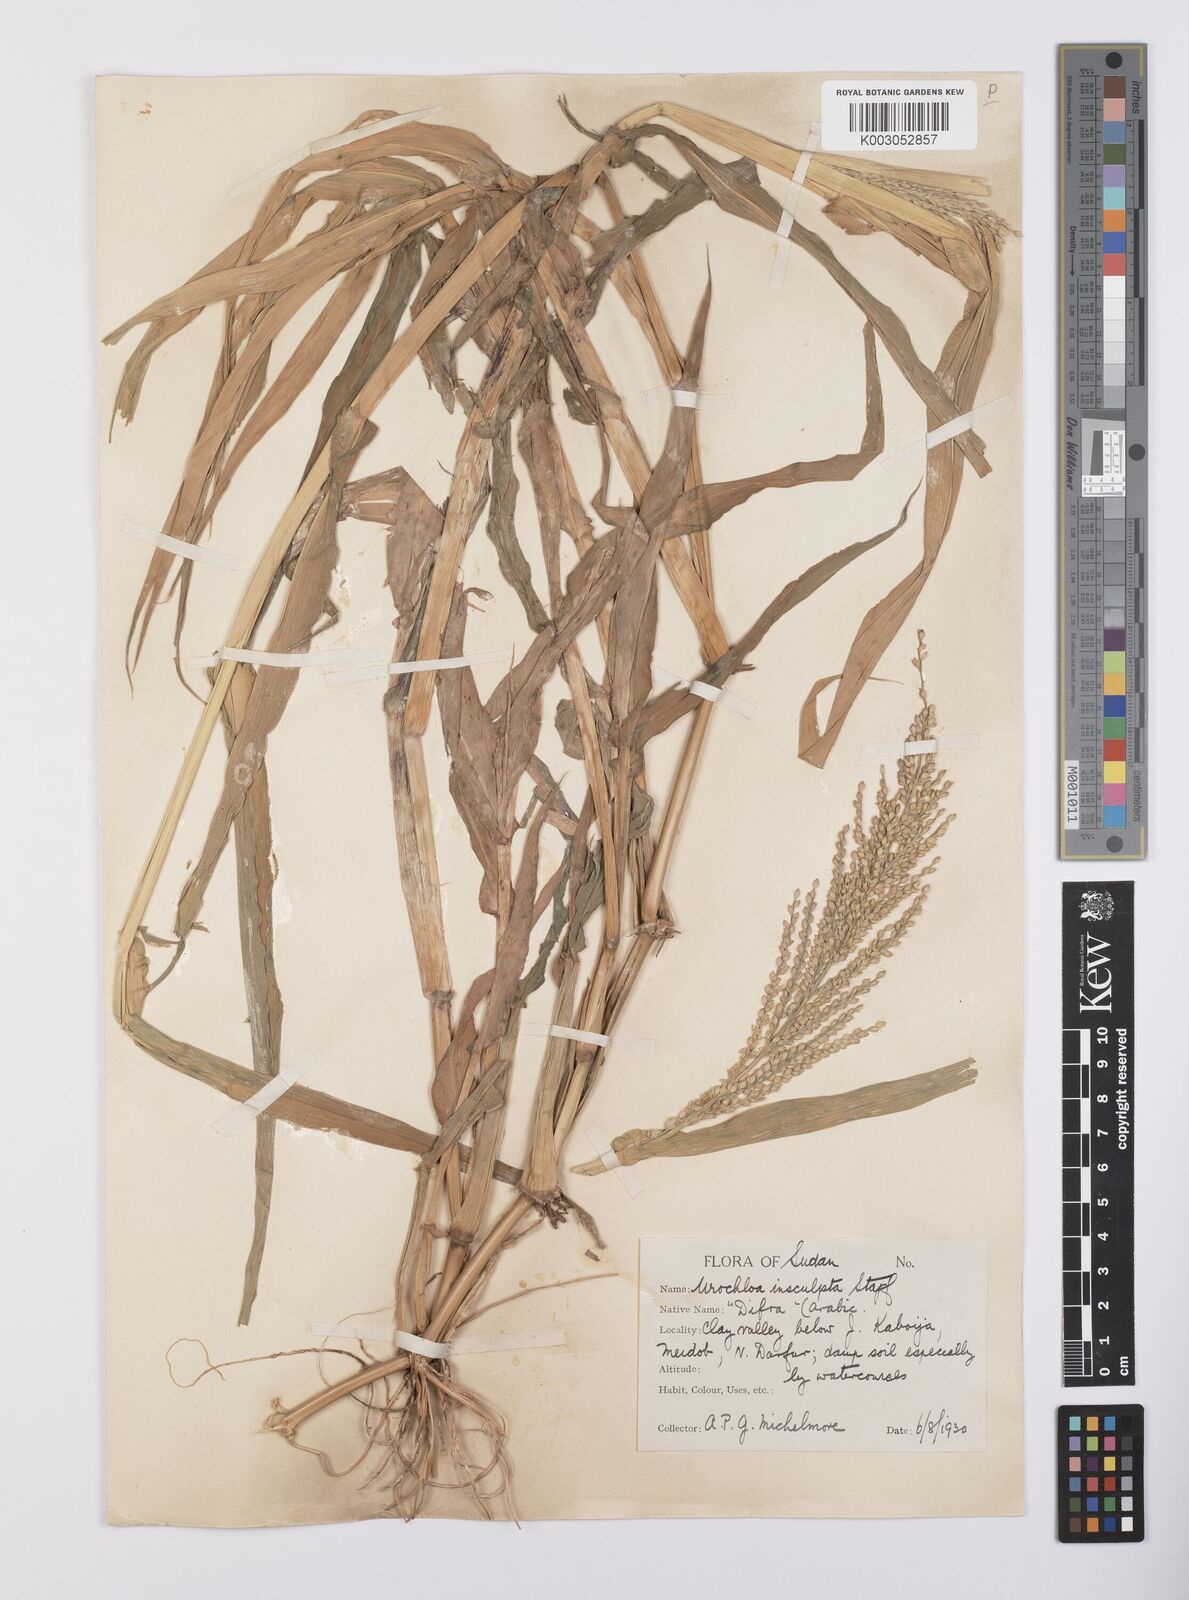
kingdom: Plantae
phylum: Tracheophyta
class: Liliopsida
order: Poales
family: Poaceae
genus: Urochloa
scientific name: Urochloa lata
